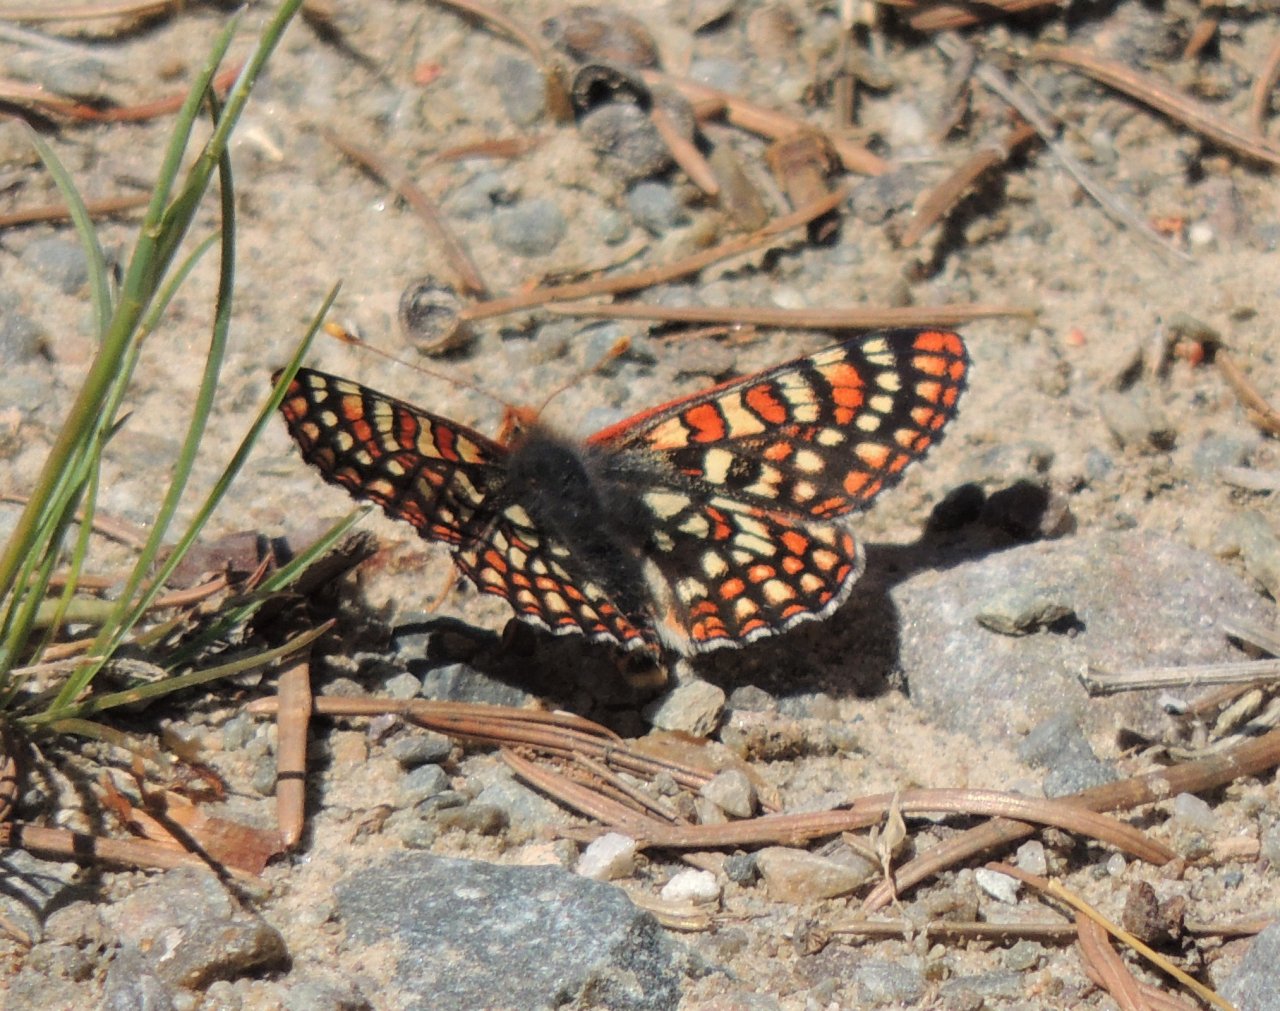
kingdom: Animalia
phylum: Arthropoda
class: Insecta
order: Lepidoptera
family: Nymphalidae
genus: Occidryas
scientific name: Occidryas editha
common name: Edith's Checkerspot
